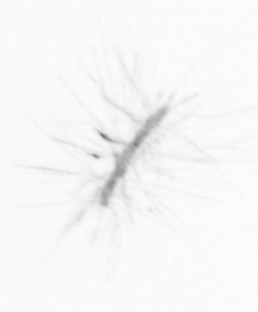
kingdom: Chromista
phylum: Ochrophyta
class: Bacillariophyceae
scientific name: Bacillariophyceae
